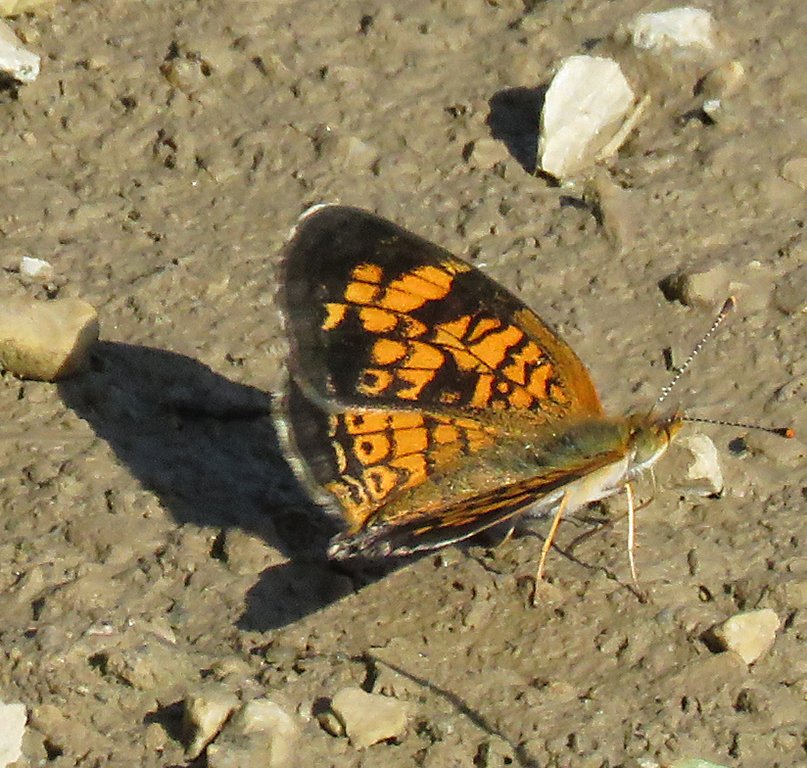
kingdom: Animalia
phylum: Arthropoda
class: Insecta
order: Lepidoptera
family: Nymphalidae
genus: Phyciodes
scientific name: Phyciodes tharos
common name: Northern Crescent
